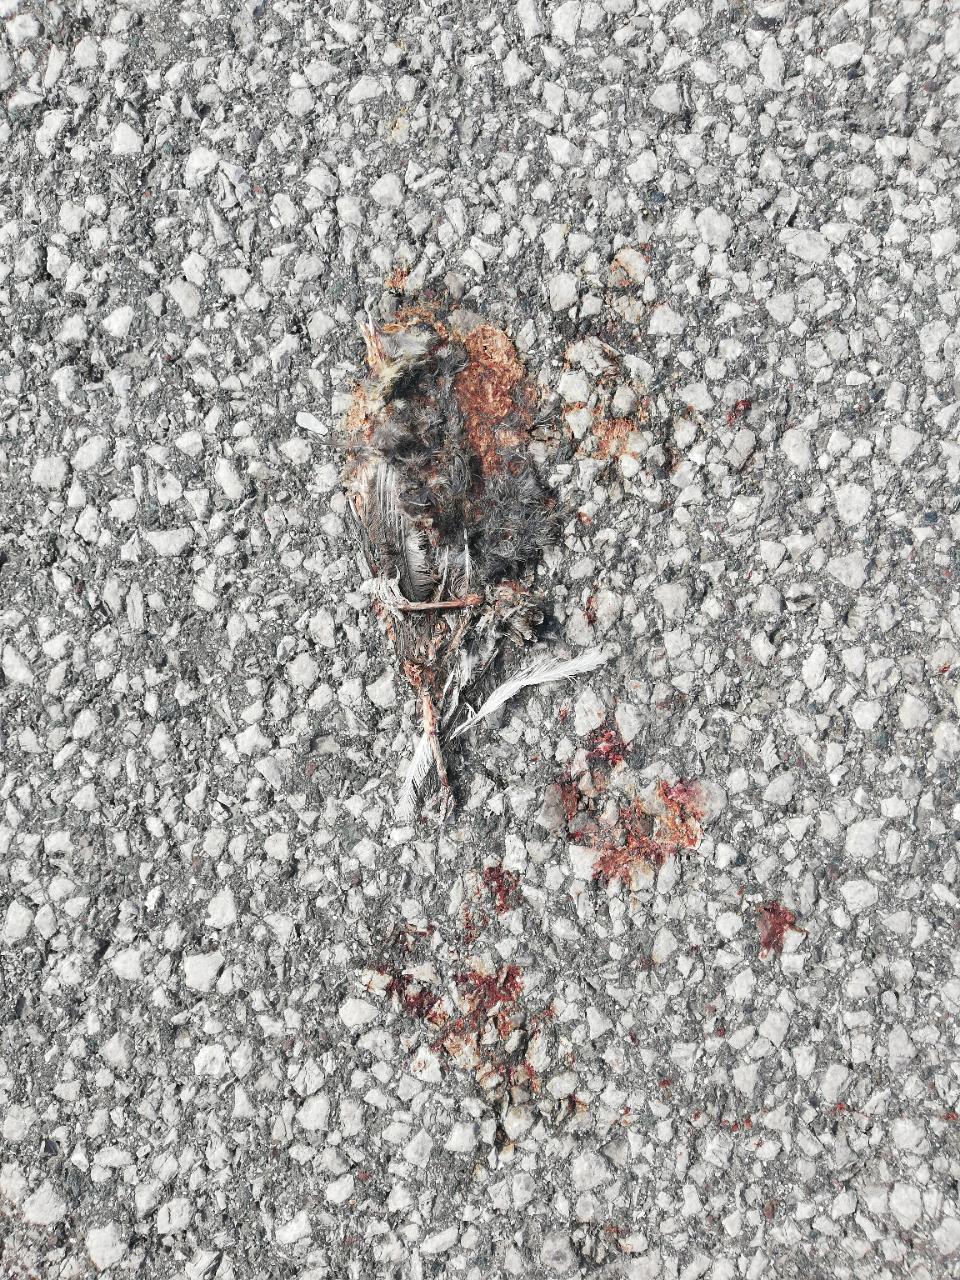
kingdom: Animalia
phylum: Chordata
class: Aves
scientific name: Aves
